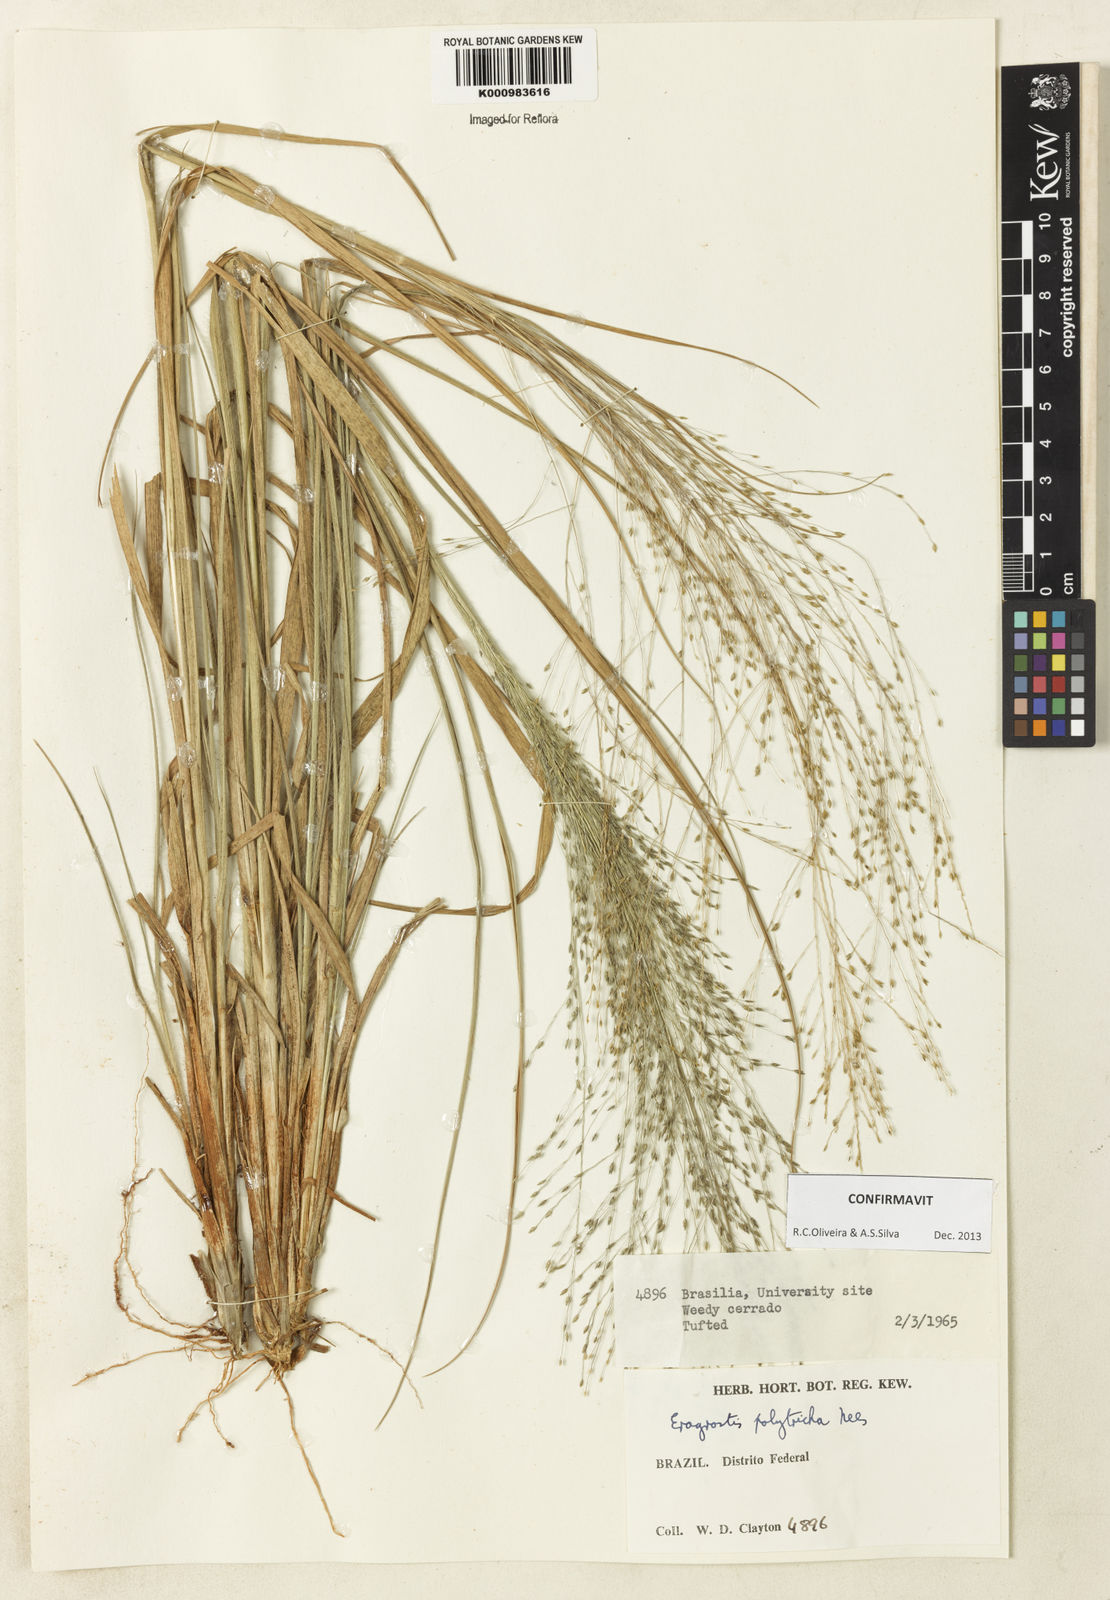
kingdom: Plantae
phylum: Tracheophyta
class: Liliopsida
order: Poales
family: Poaceae
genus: Eragrostis
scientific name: Eragrostis polytricha
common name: Hairy-sheath love grass
